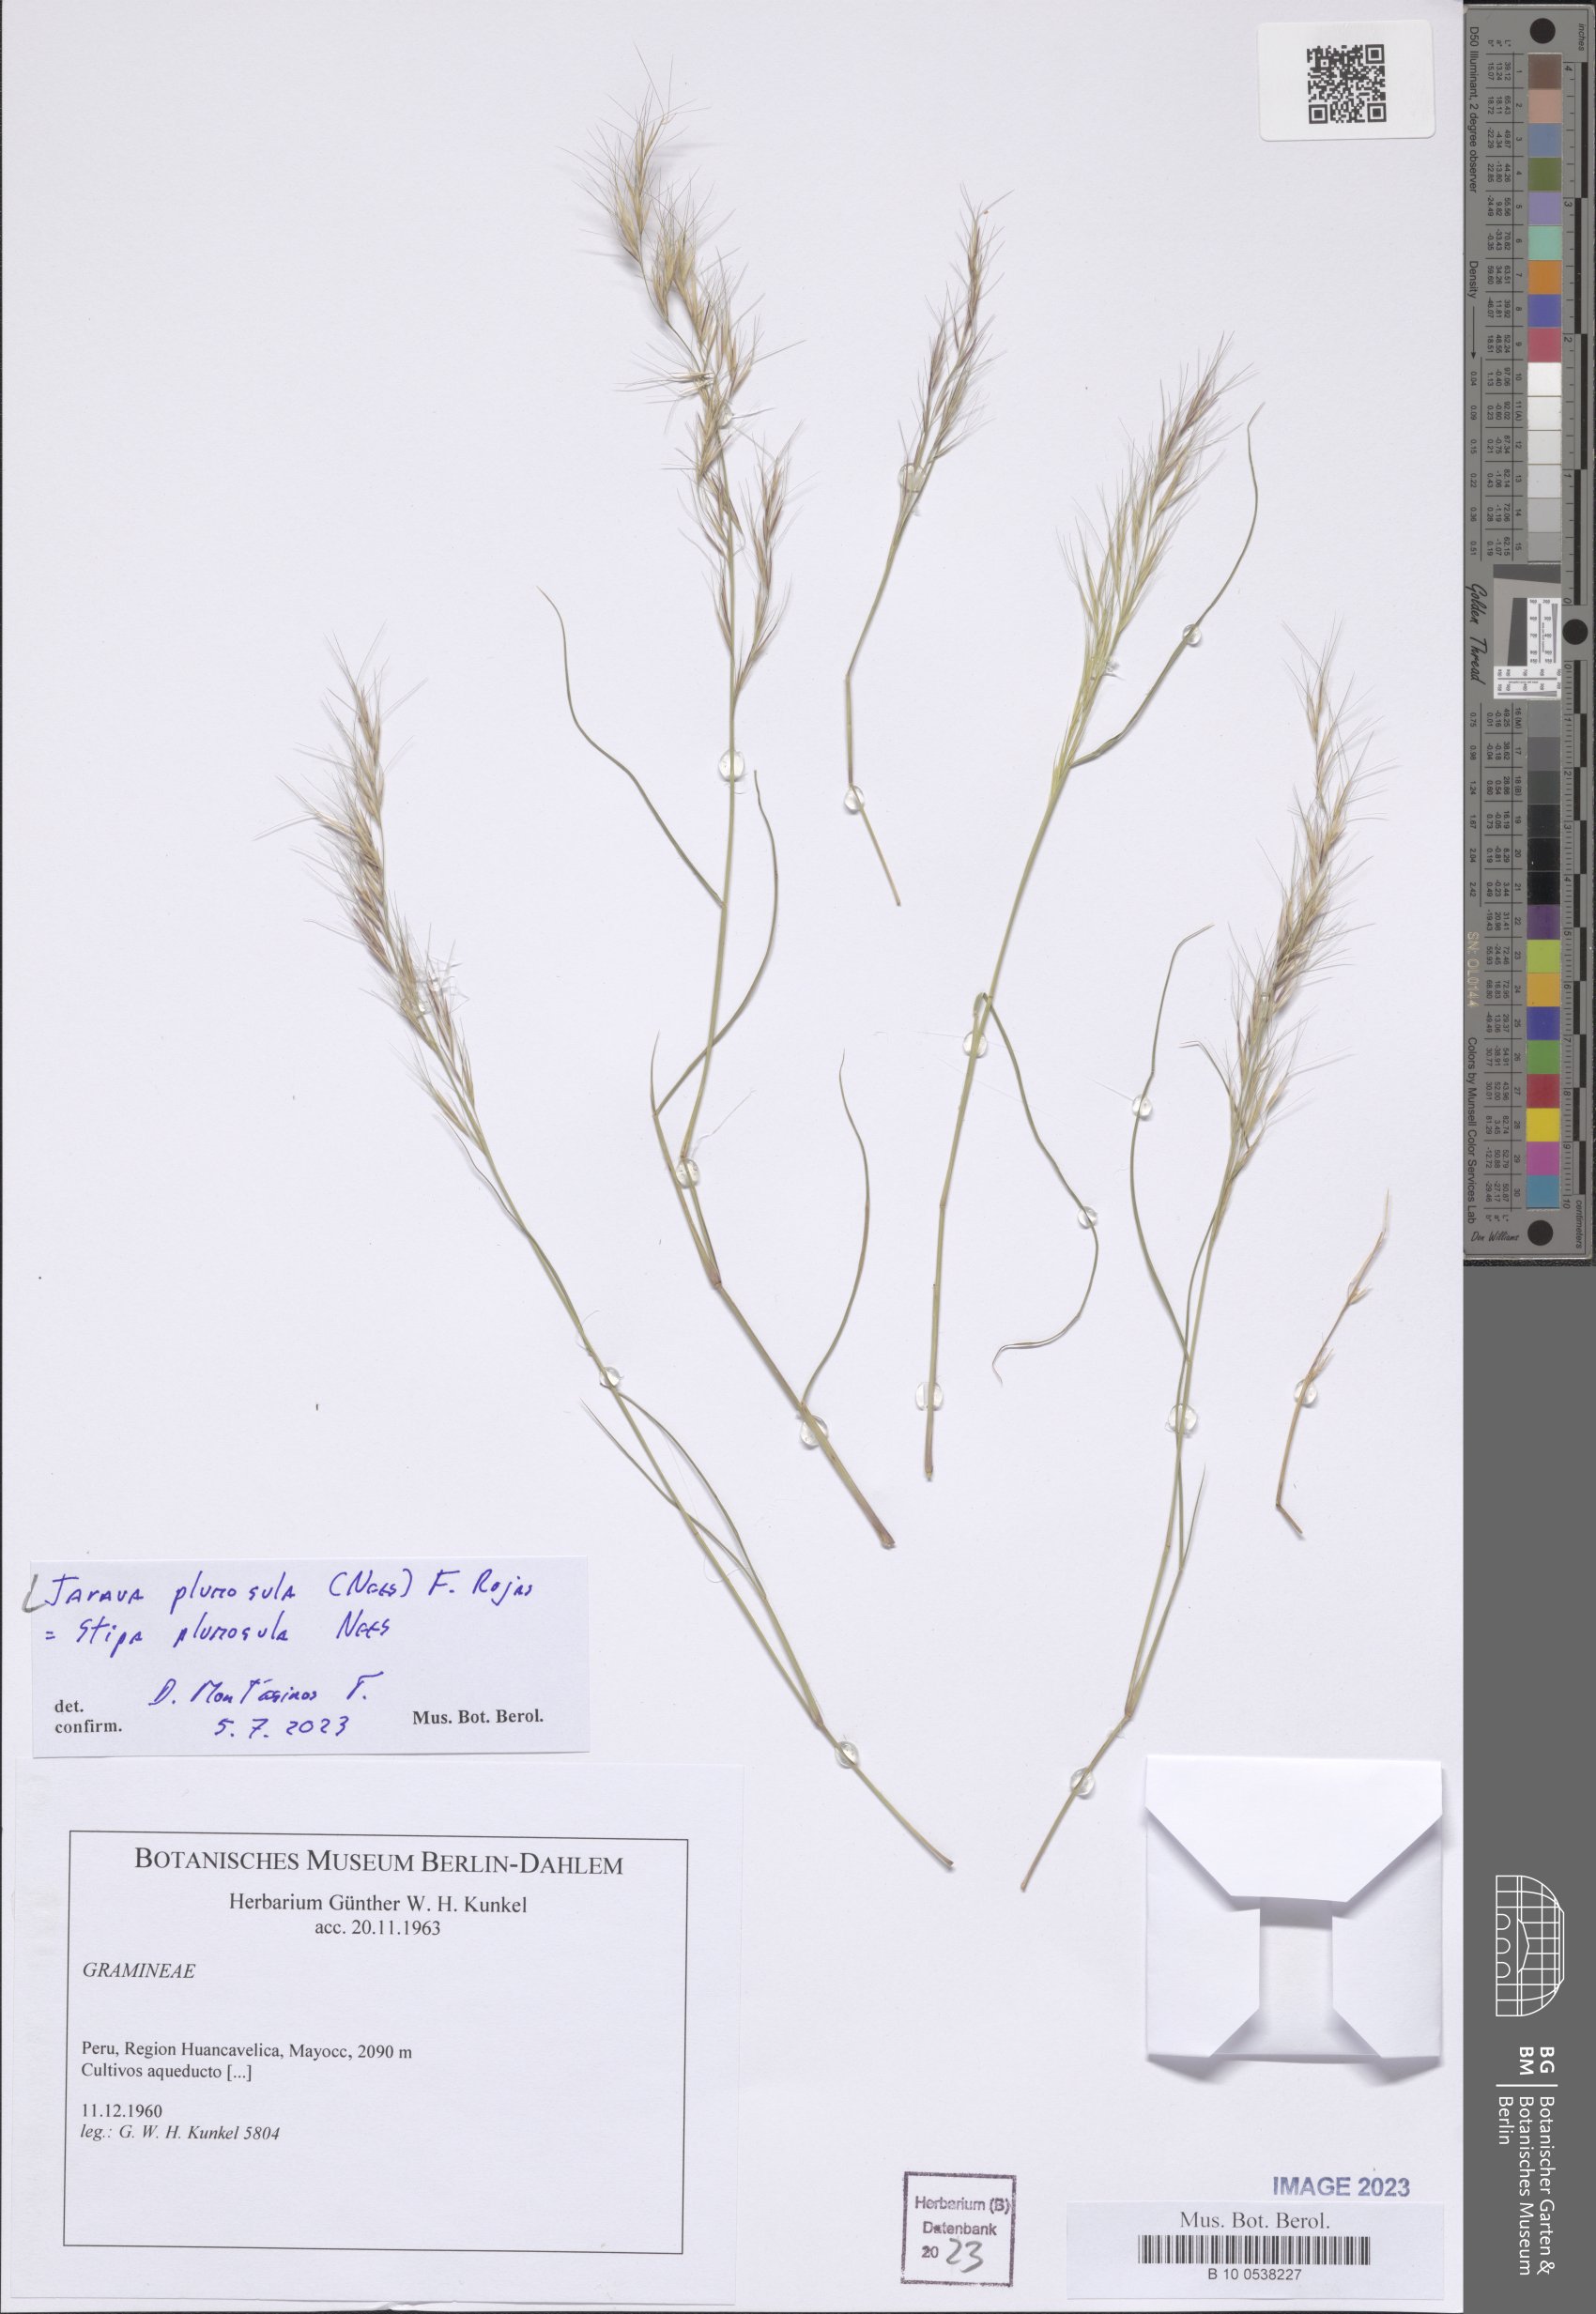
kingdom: Plantae
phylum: Tracheophyta
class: Liliopsida
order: Poales
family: Poaceae
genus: Stipa
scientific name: Stipa plumosa
